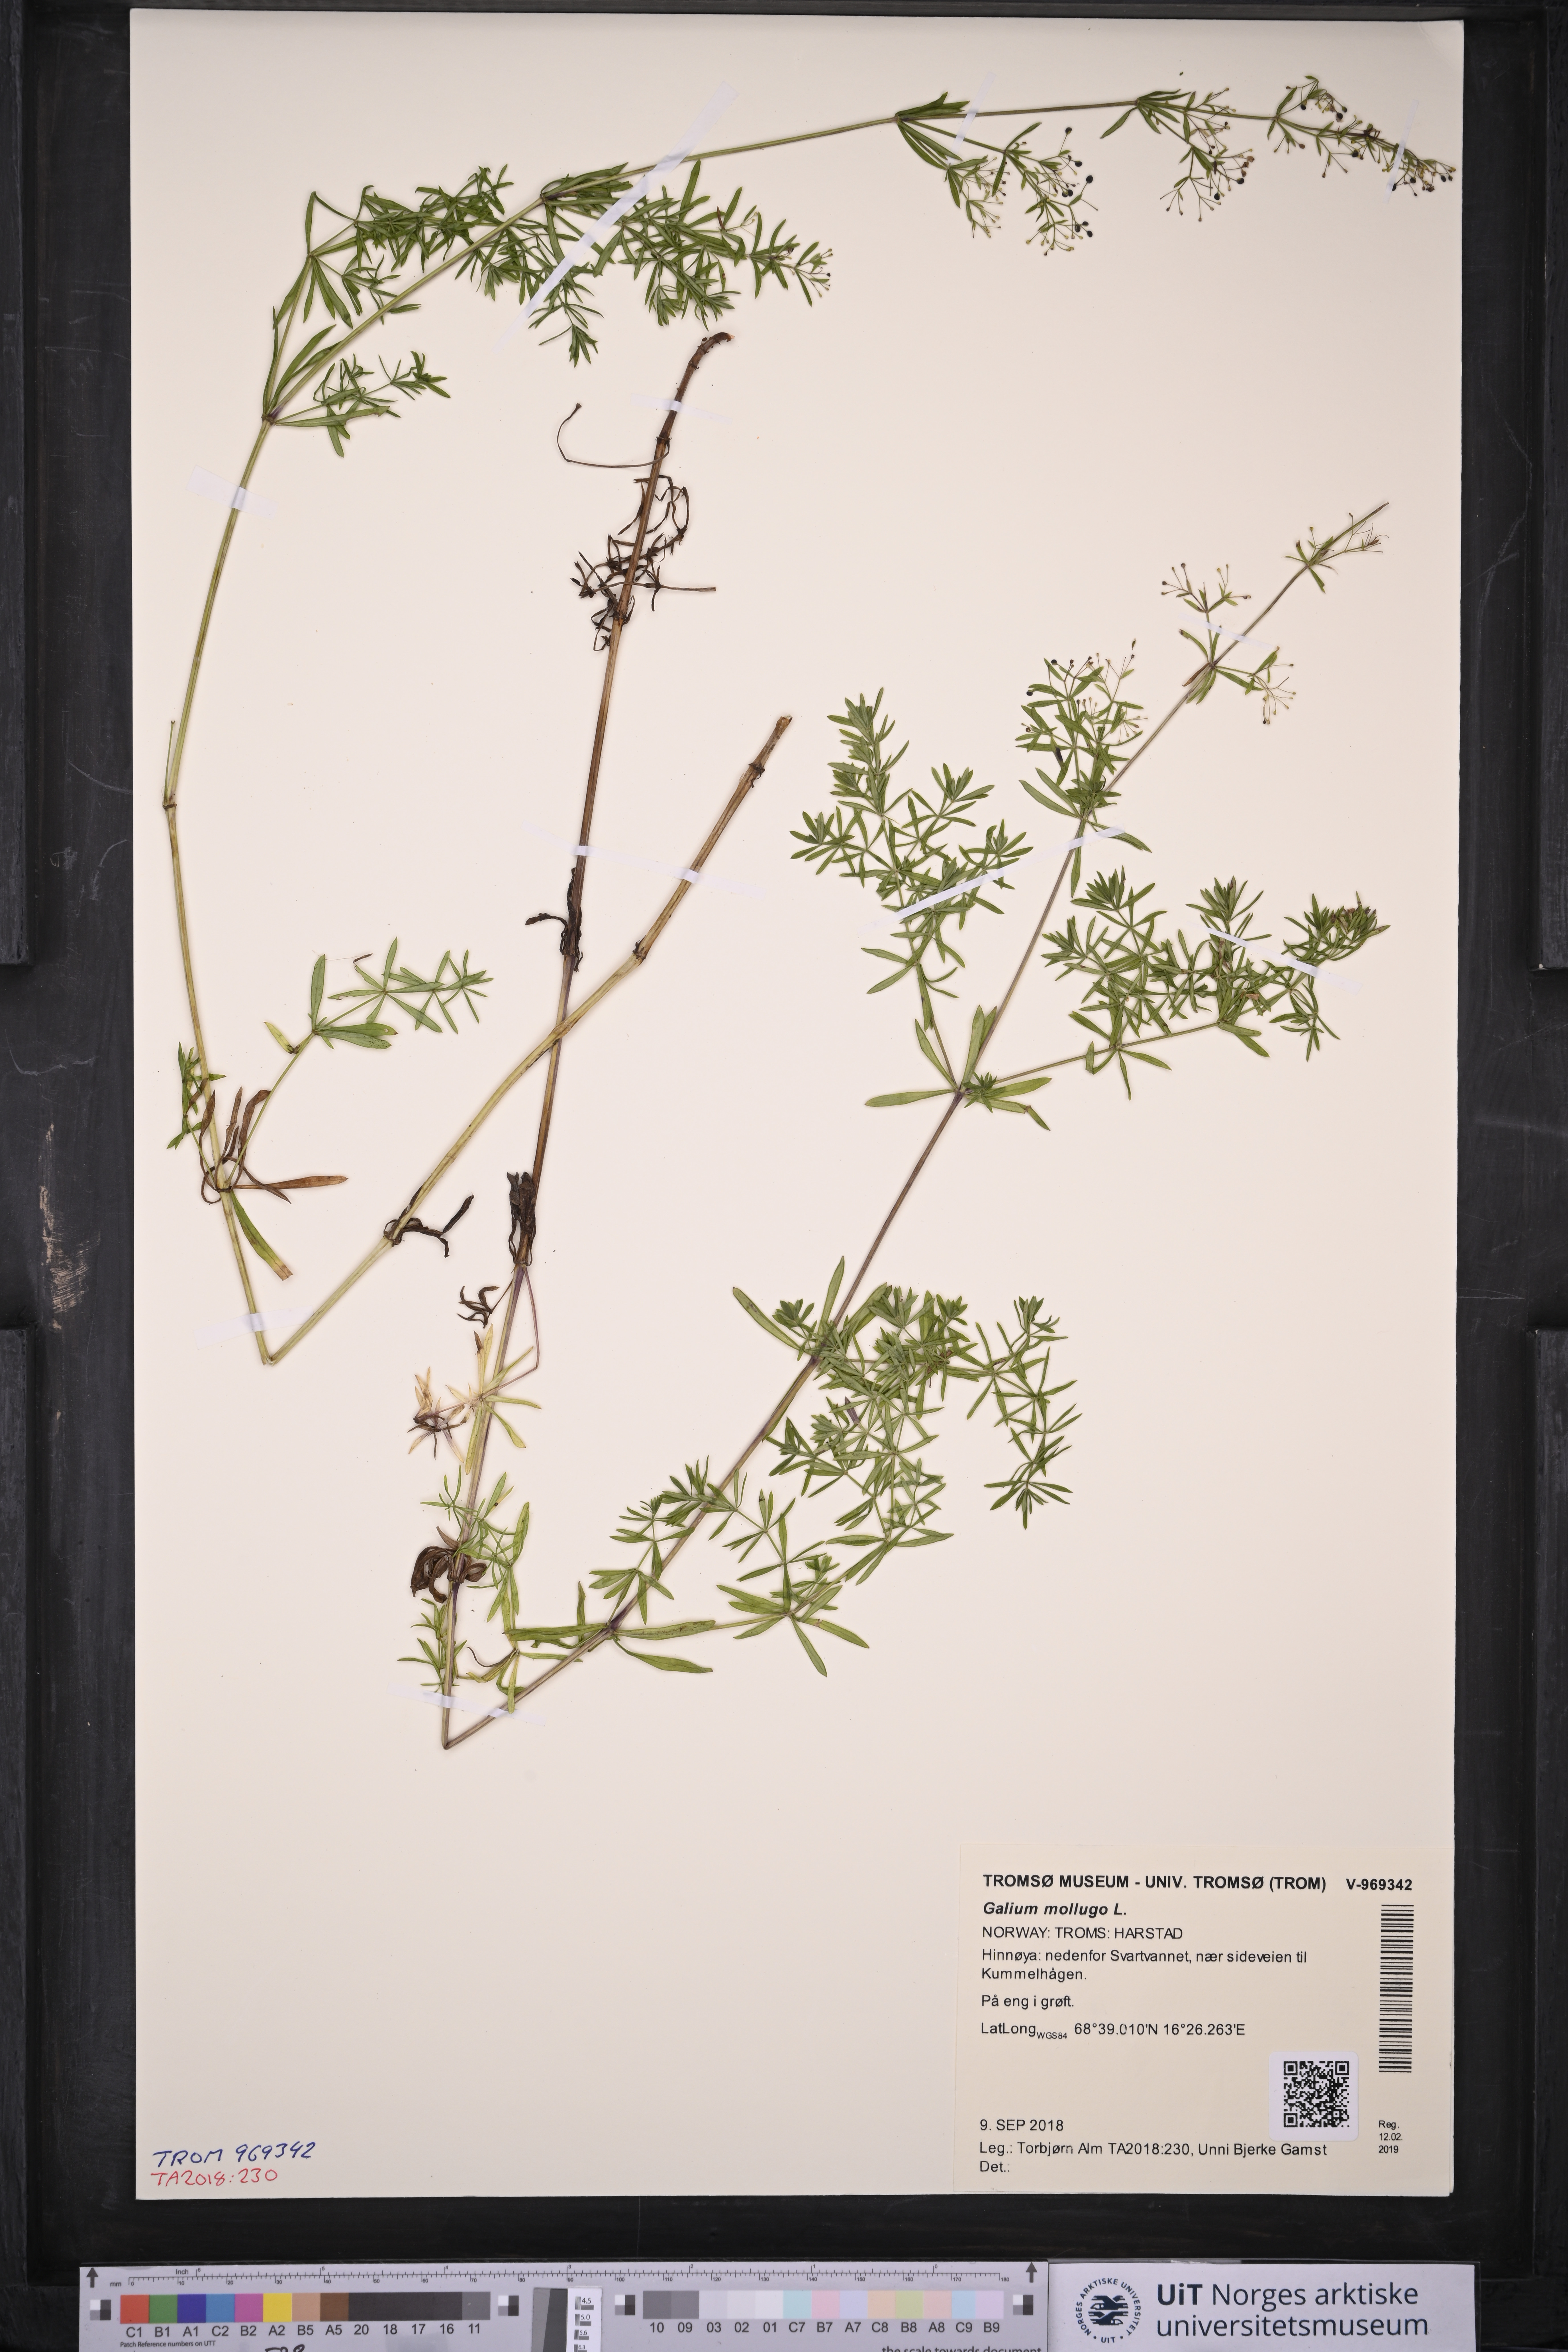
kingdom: Plantae
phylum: Tracheophyta
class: Magnoliopsida
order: Gentianales
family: Rubiaceae
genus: Galium
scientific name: Galium mollugo
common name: Hedge bedstraw
